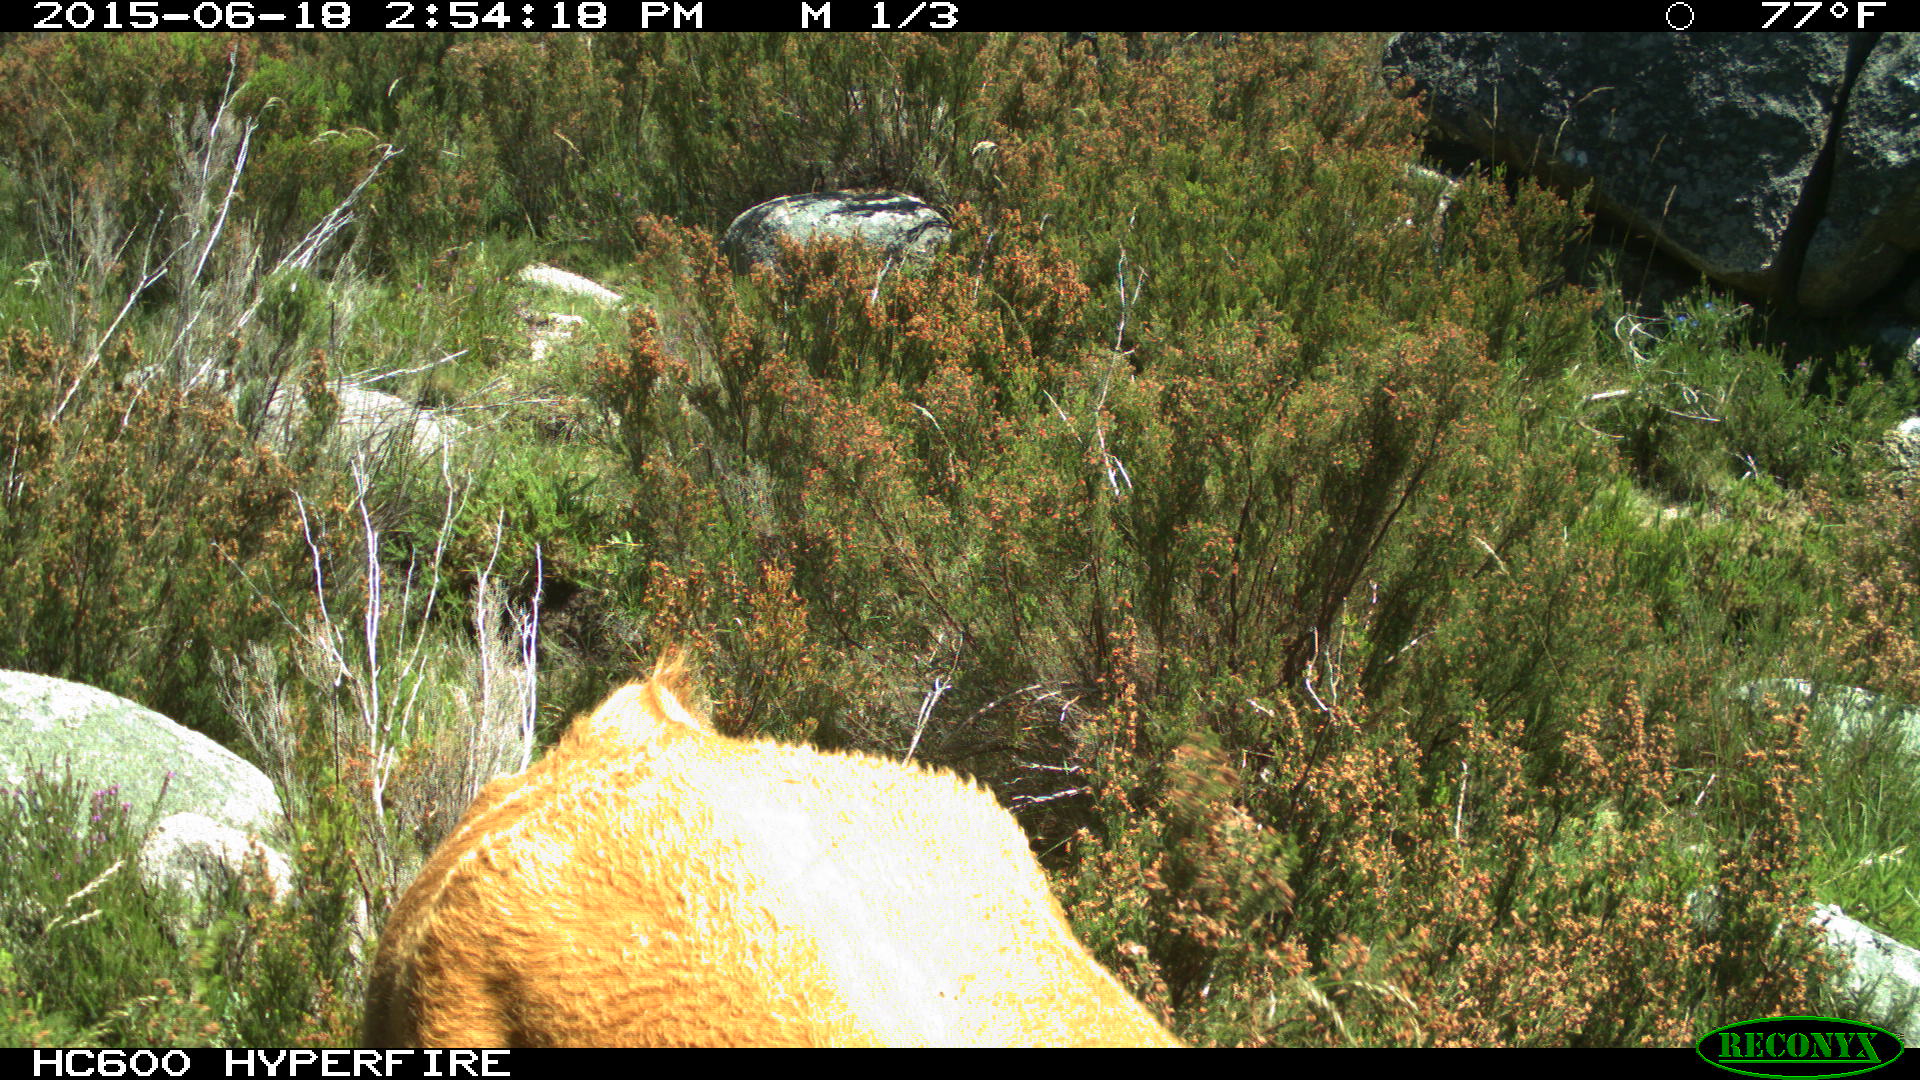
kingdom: Animalia
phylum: Chordata
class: Mammalia
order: Artiodactyla
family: Bovidae
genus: Bos
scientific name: Bos taurus
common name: Domesticated cattle
